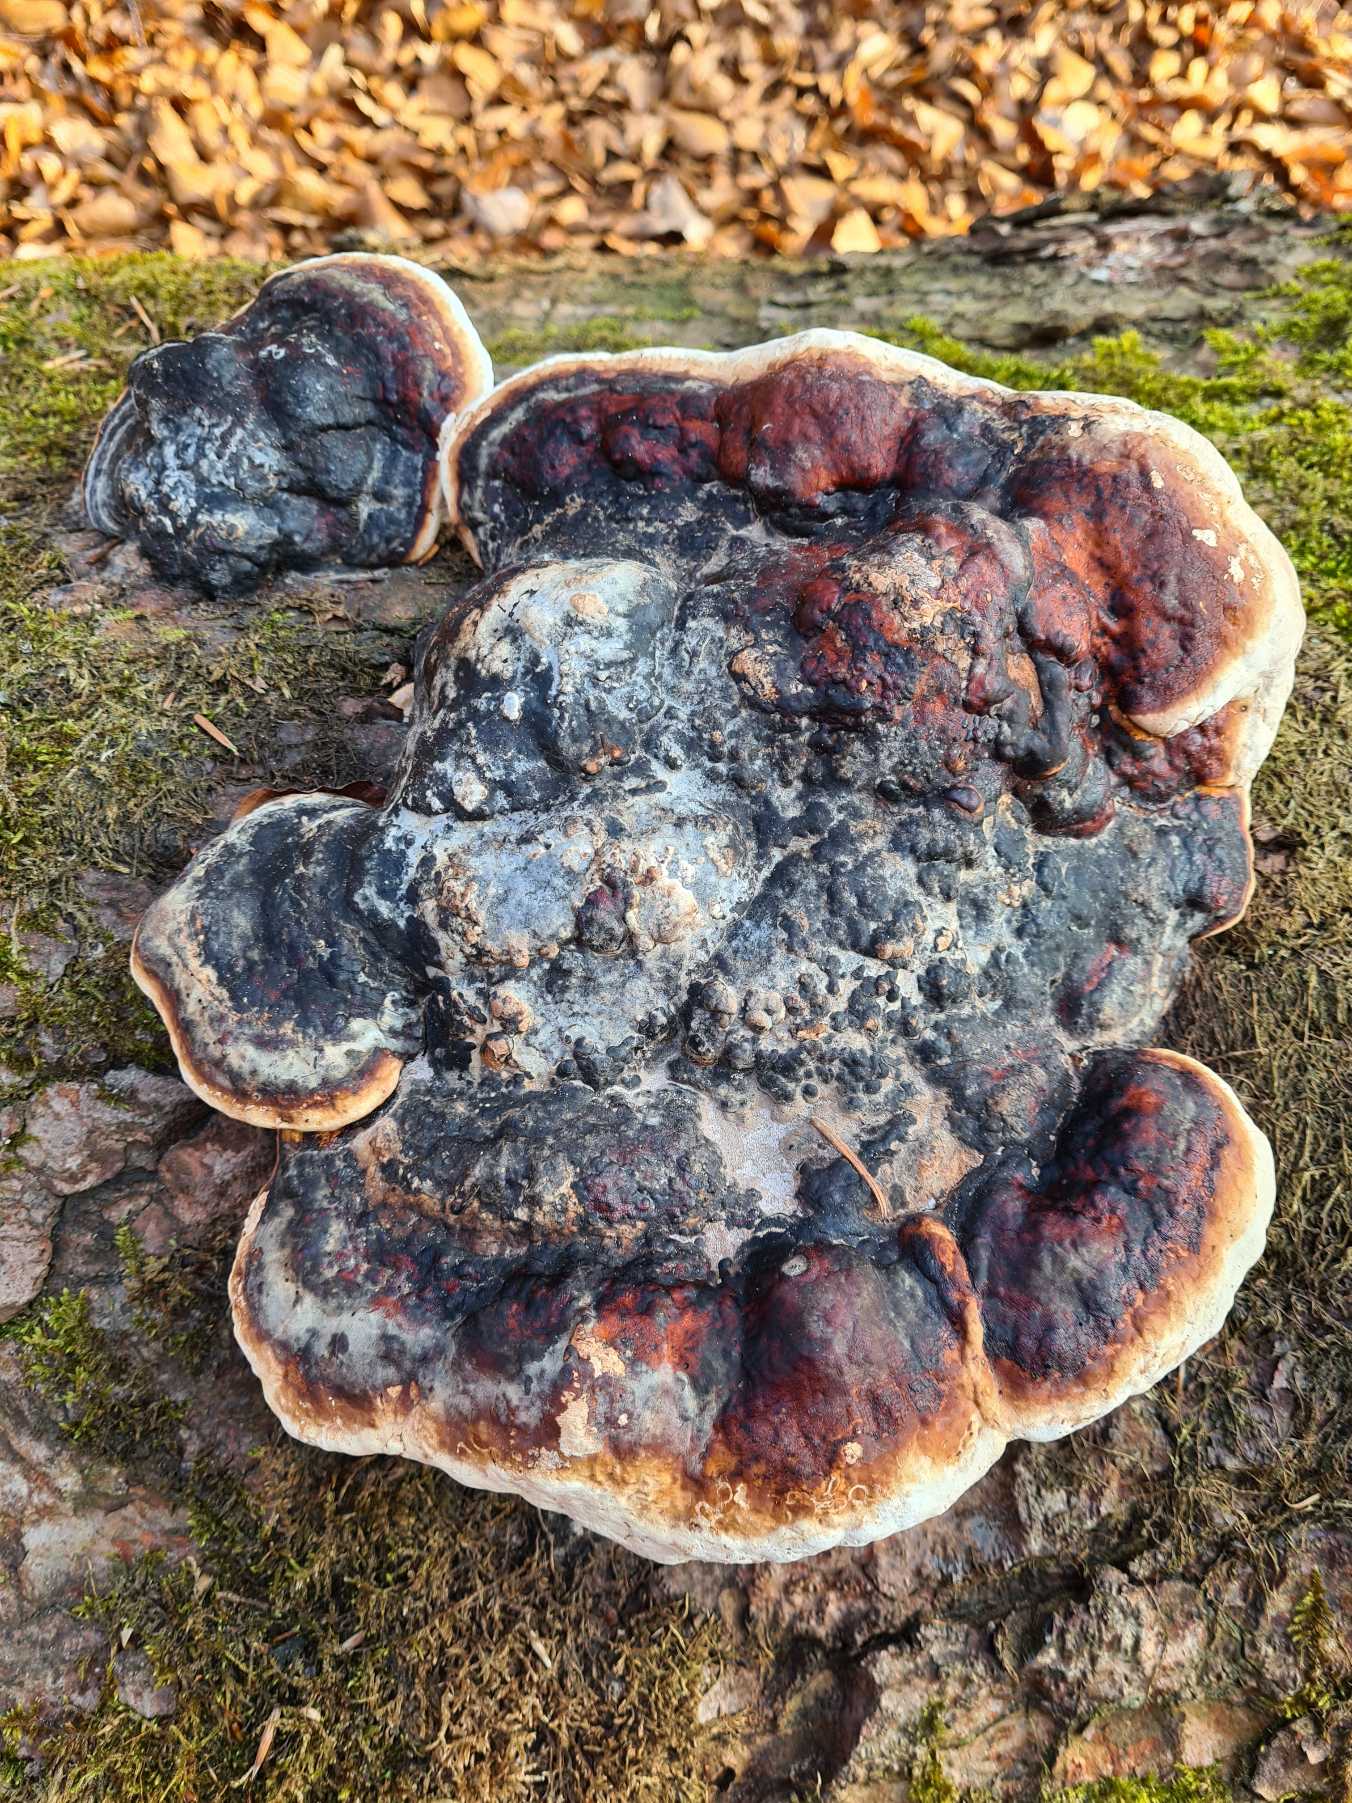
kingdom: Fungi
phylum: Basidiomycota
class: Agaricomycetes
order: Polyporales
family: Fomitopsidaceae
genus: Fomitopsis
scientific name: Fomitopsis pinicola
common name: Randbæltet hovporesvamp
